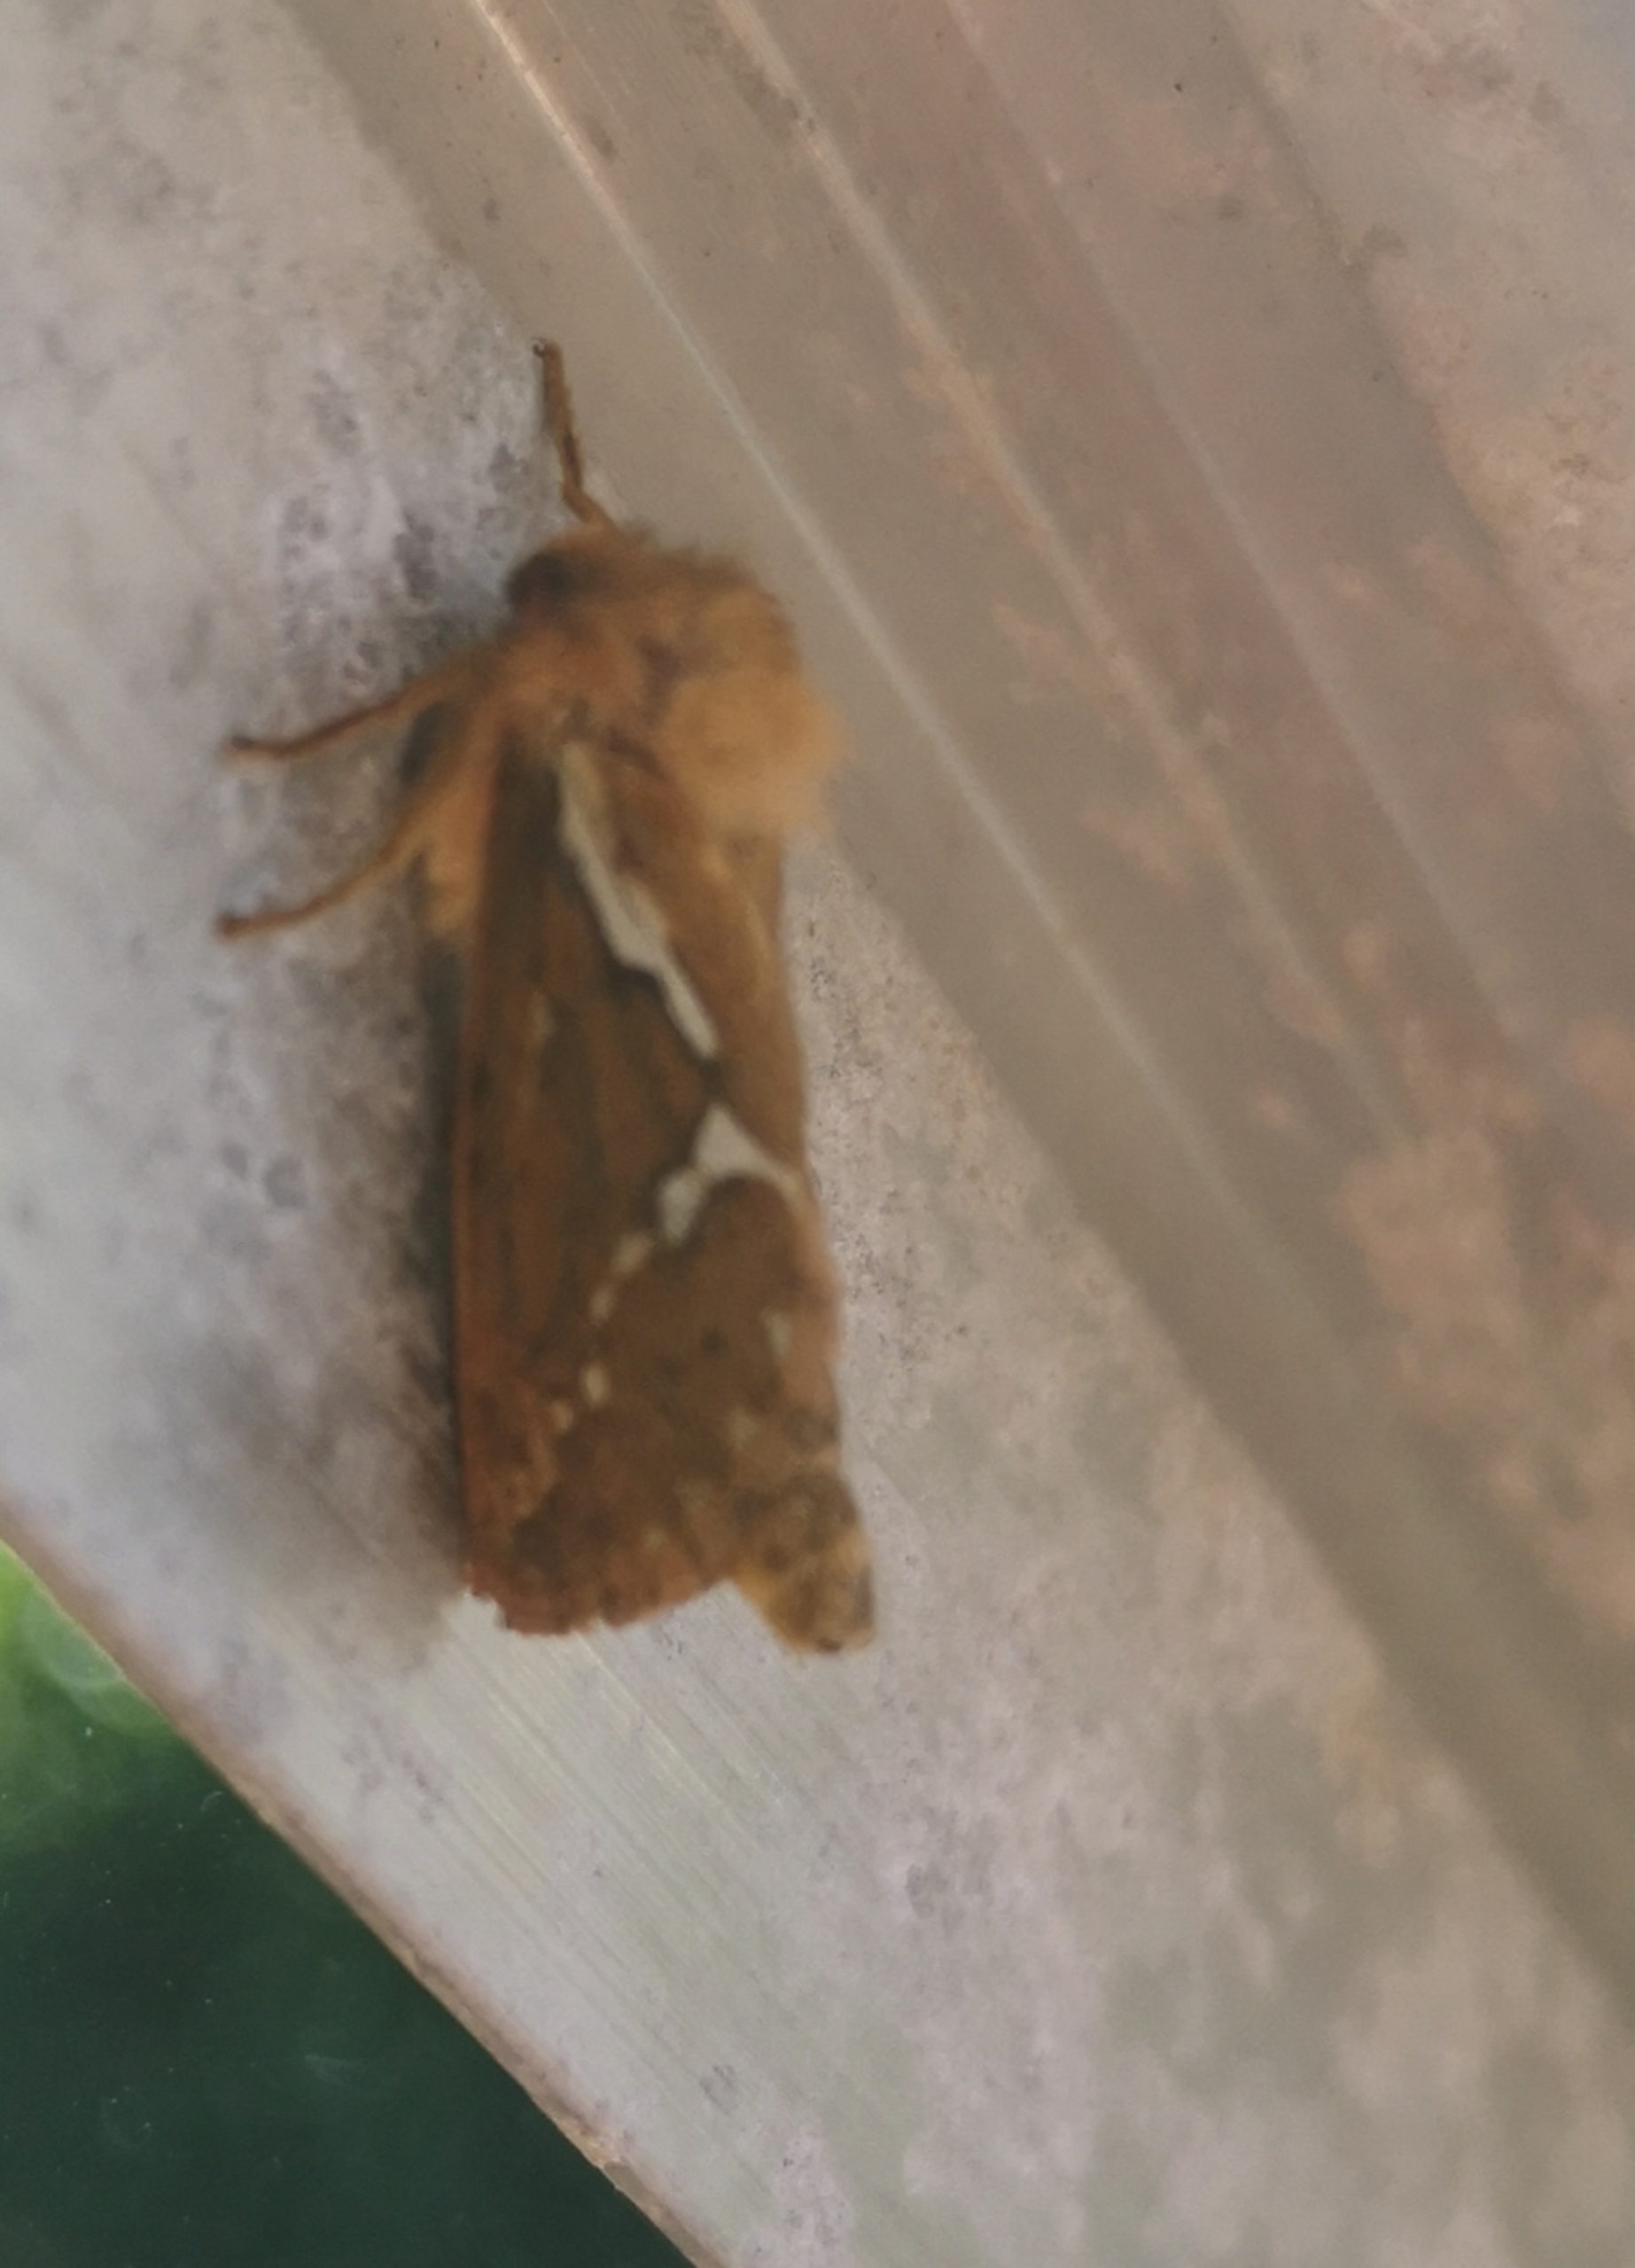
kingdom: Animalia
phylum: Arthropoda
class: Insecta
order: Lepidoptera
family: Hepialidae
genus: Korscheltellus
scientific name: Korscheltellus lupulina
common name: Konvalrodæder
